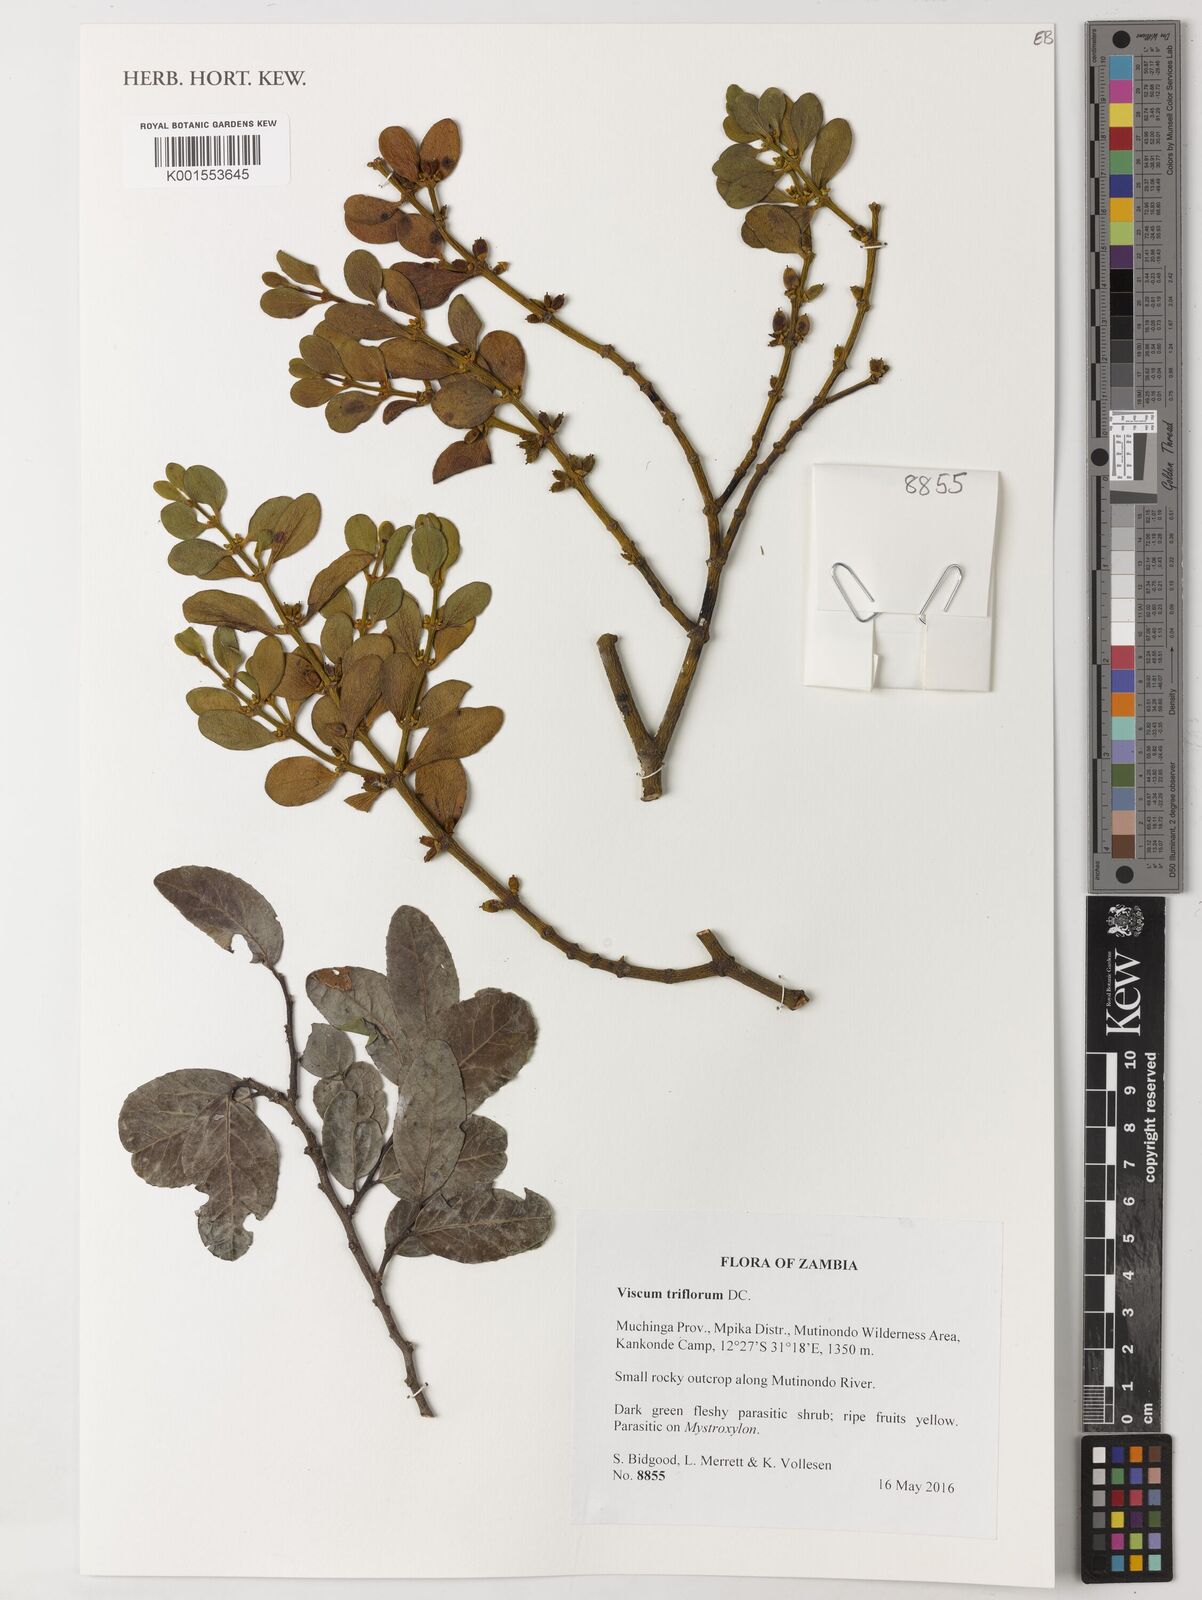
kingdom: Plantae
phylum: Tracheophyta
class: Magnoliopsida
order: Santalales
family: Viscaceae
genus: Viscum
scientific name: Viscum triflorum
